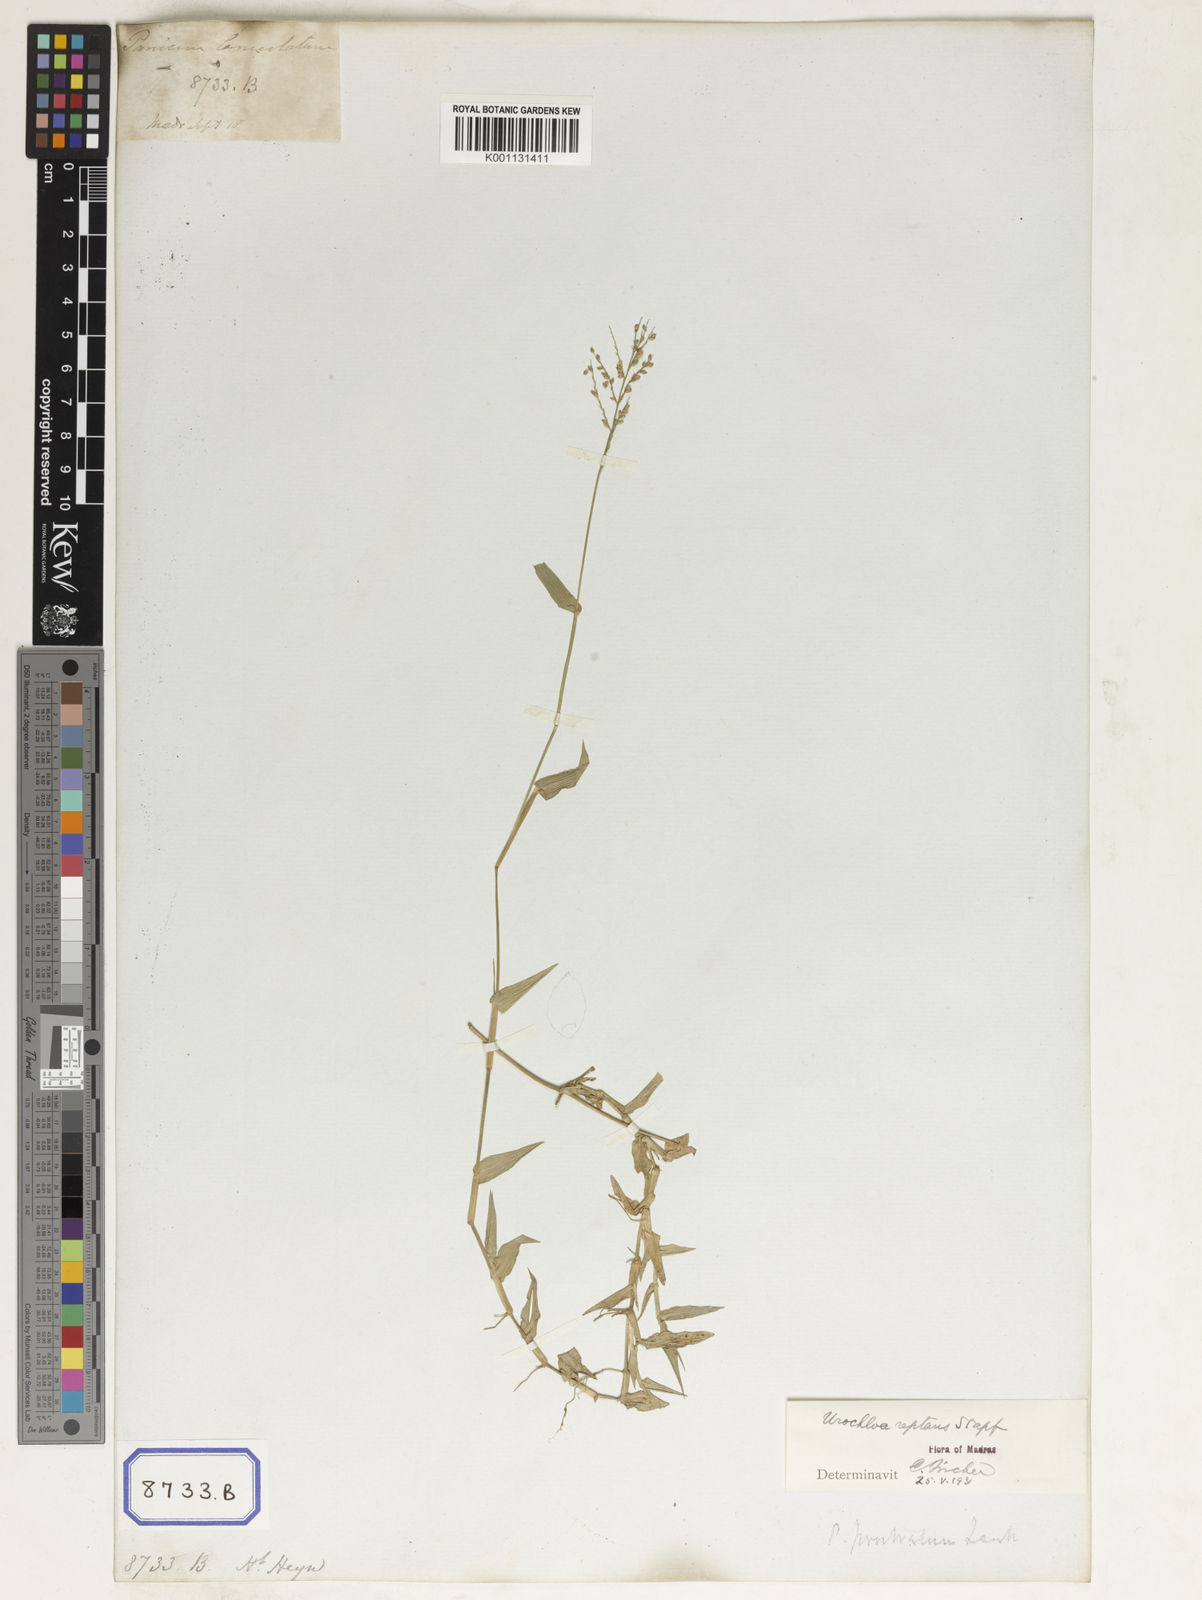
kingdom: Plantae
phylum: Tracheophyta
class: Liliopsida
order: Poales
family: Poaceae
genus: Panicum
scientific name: Panicum
